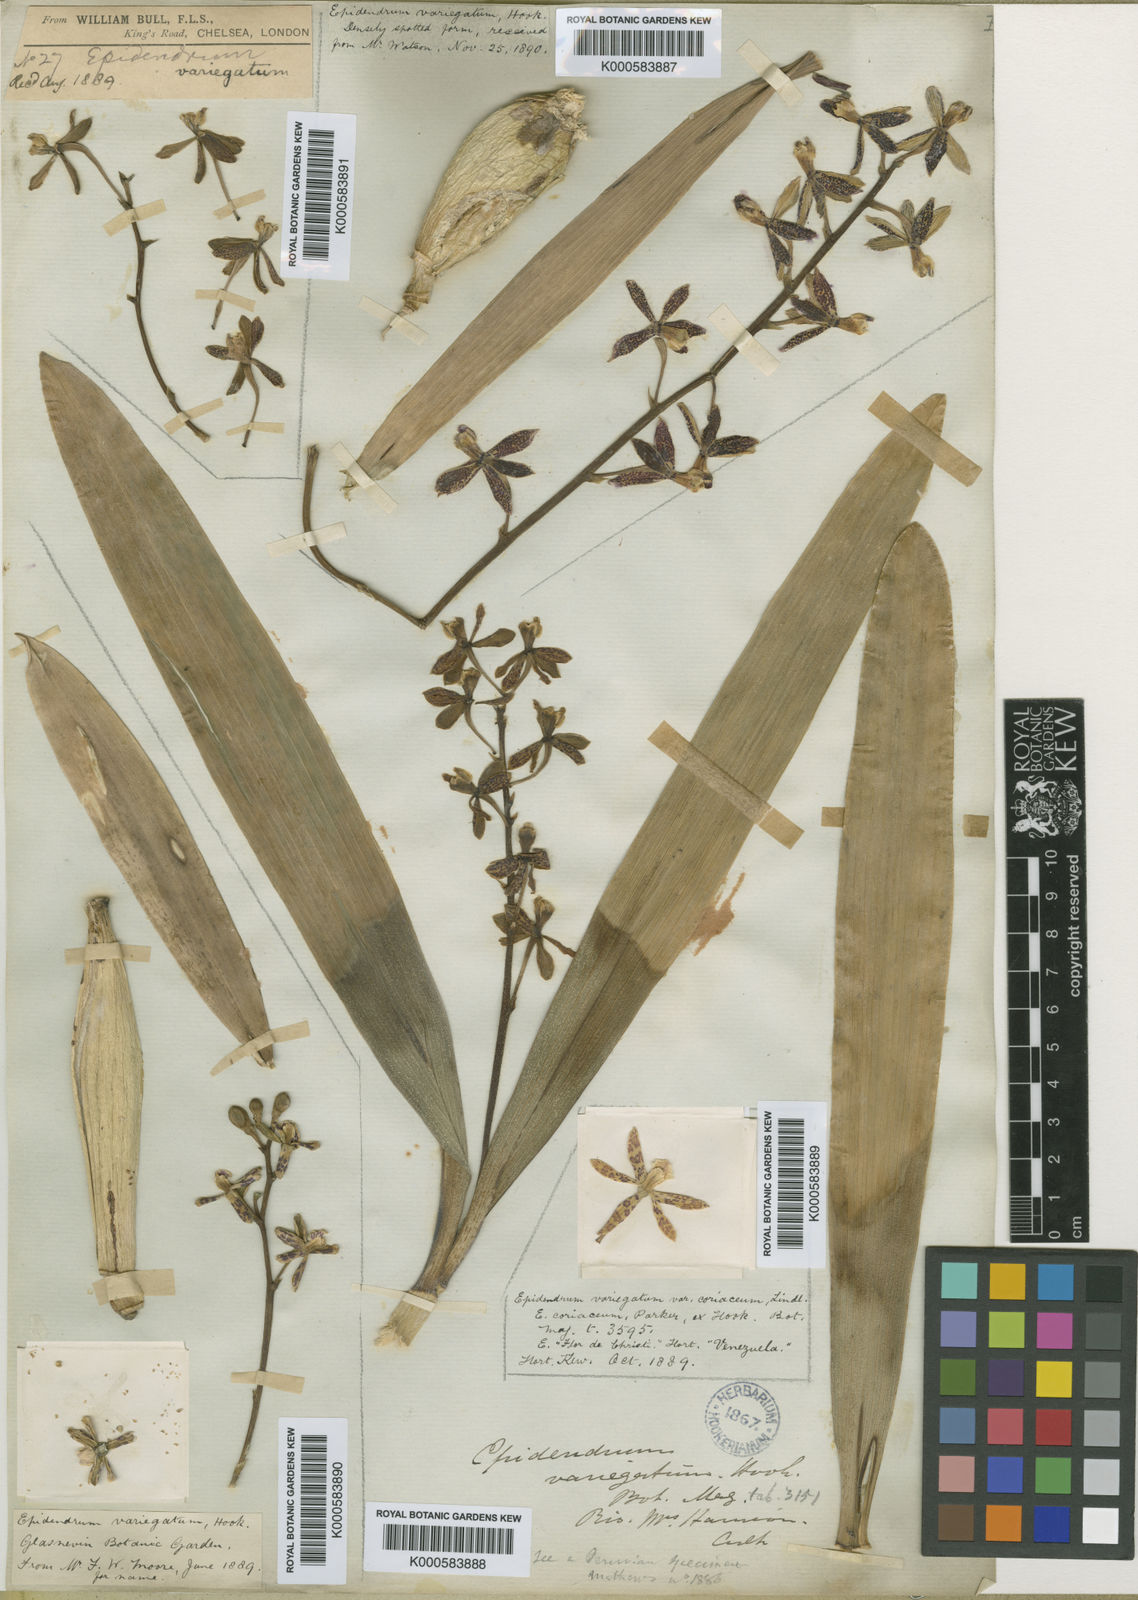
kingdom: Plantae
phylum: Tracheophyta
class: Liliopsida
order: Asparagales
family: Orchidaceae
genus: Encyclia
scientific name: Encyclia
